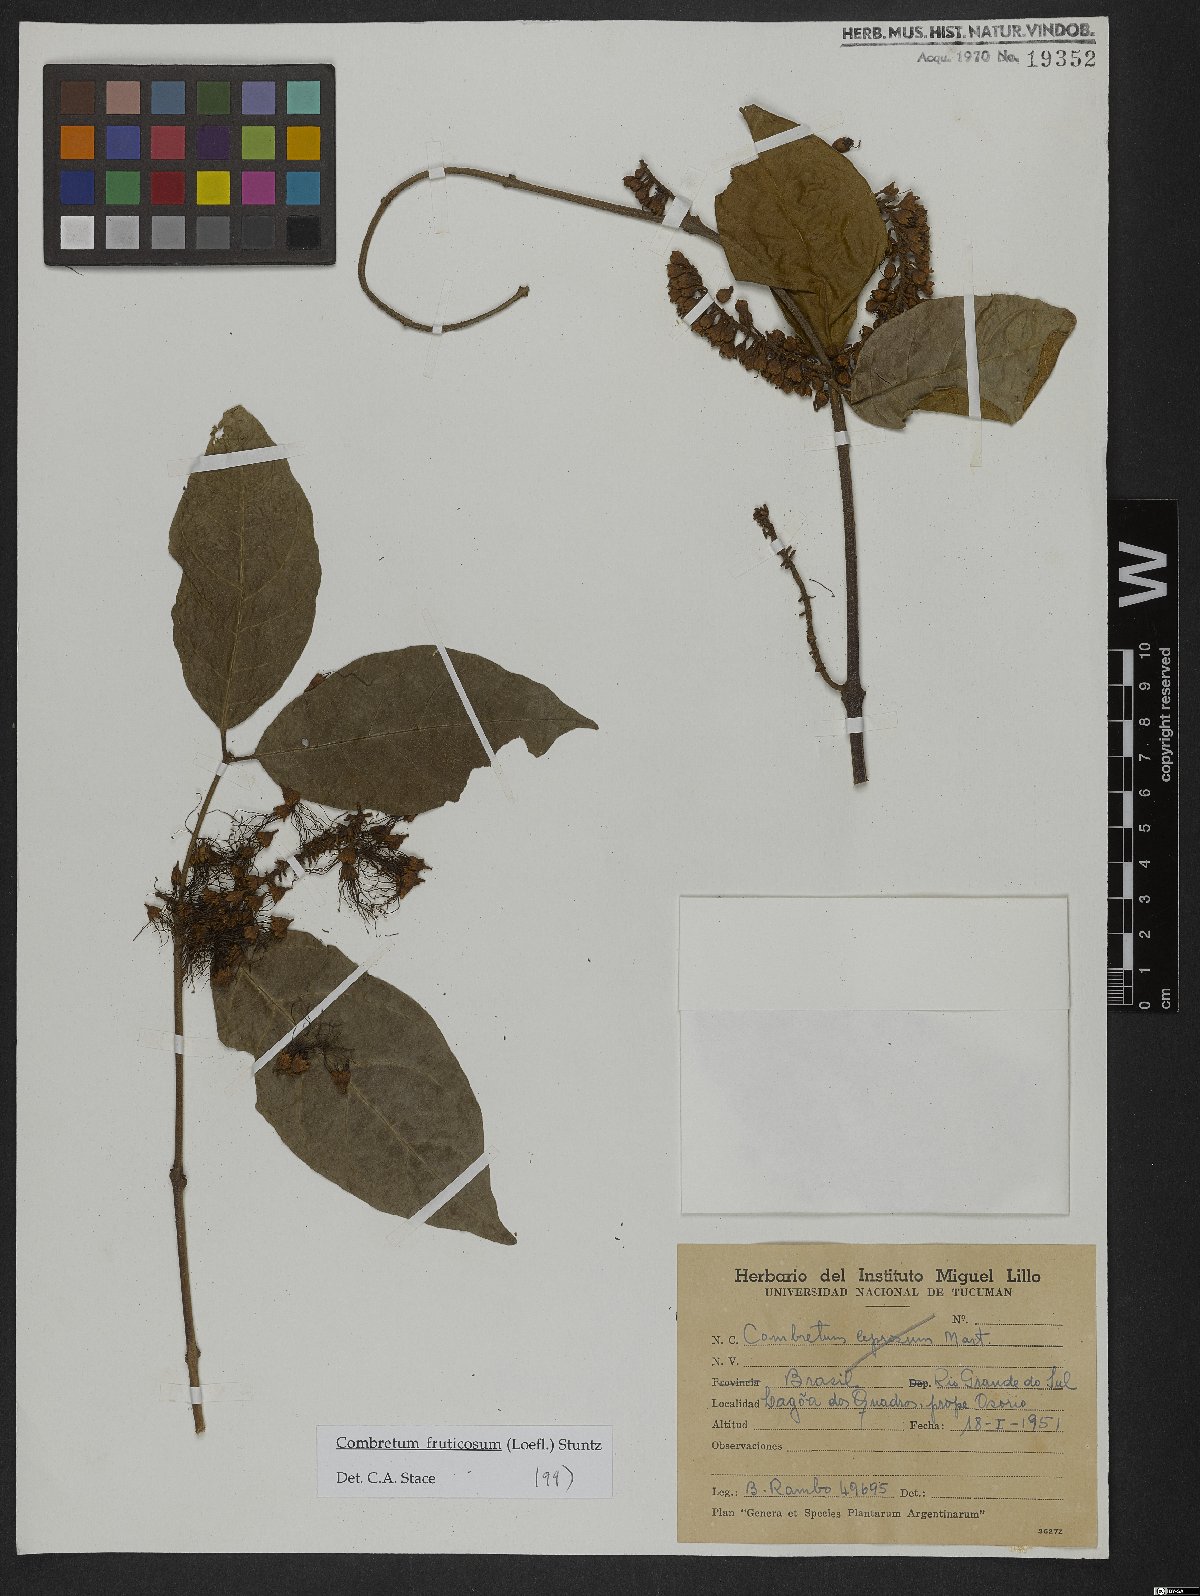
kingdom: Plantae
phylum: Tracheophyta
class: Magnoliopsida
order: Myrtales
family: Combretaceae
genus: Combretum
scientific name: Combretum fruticosum
